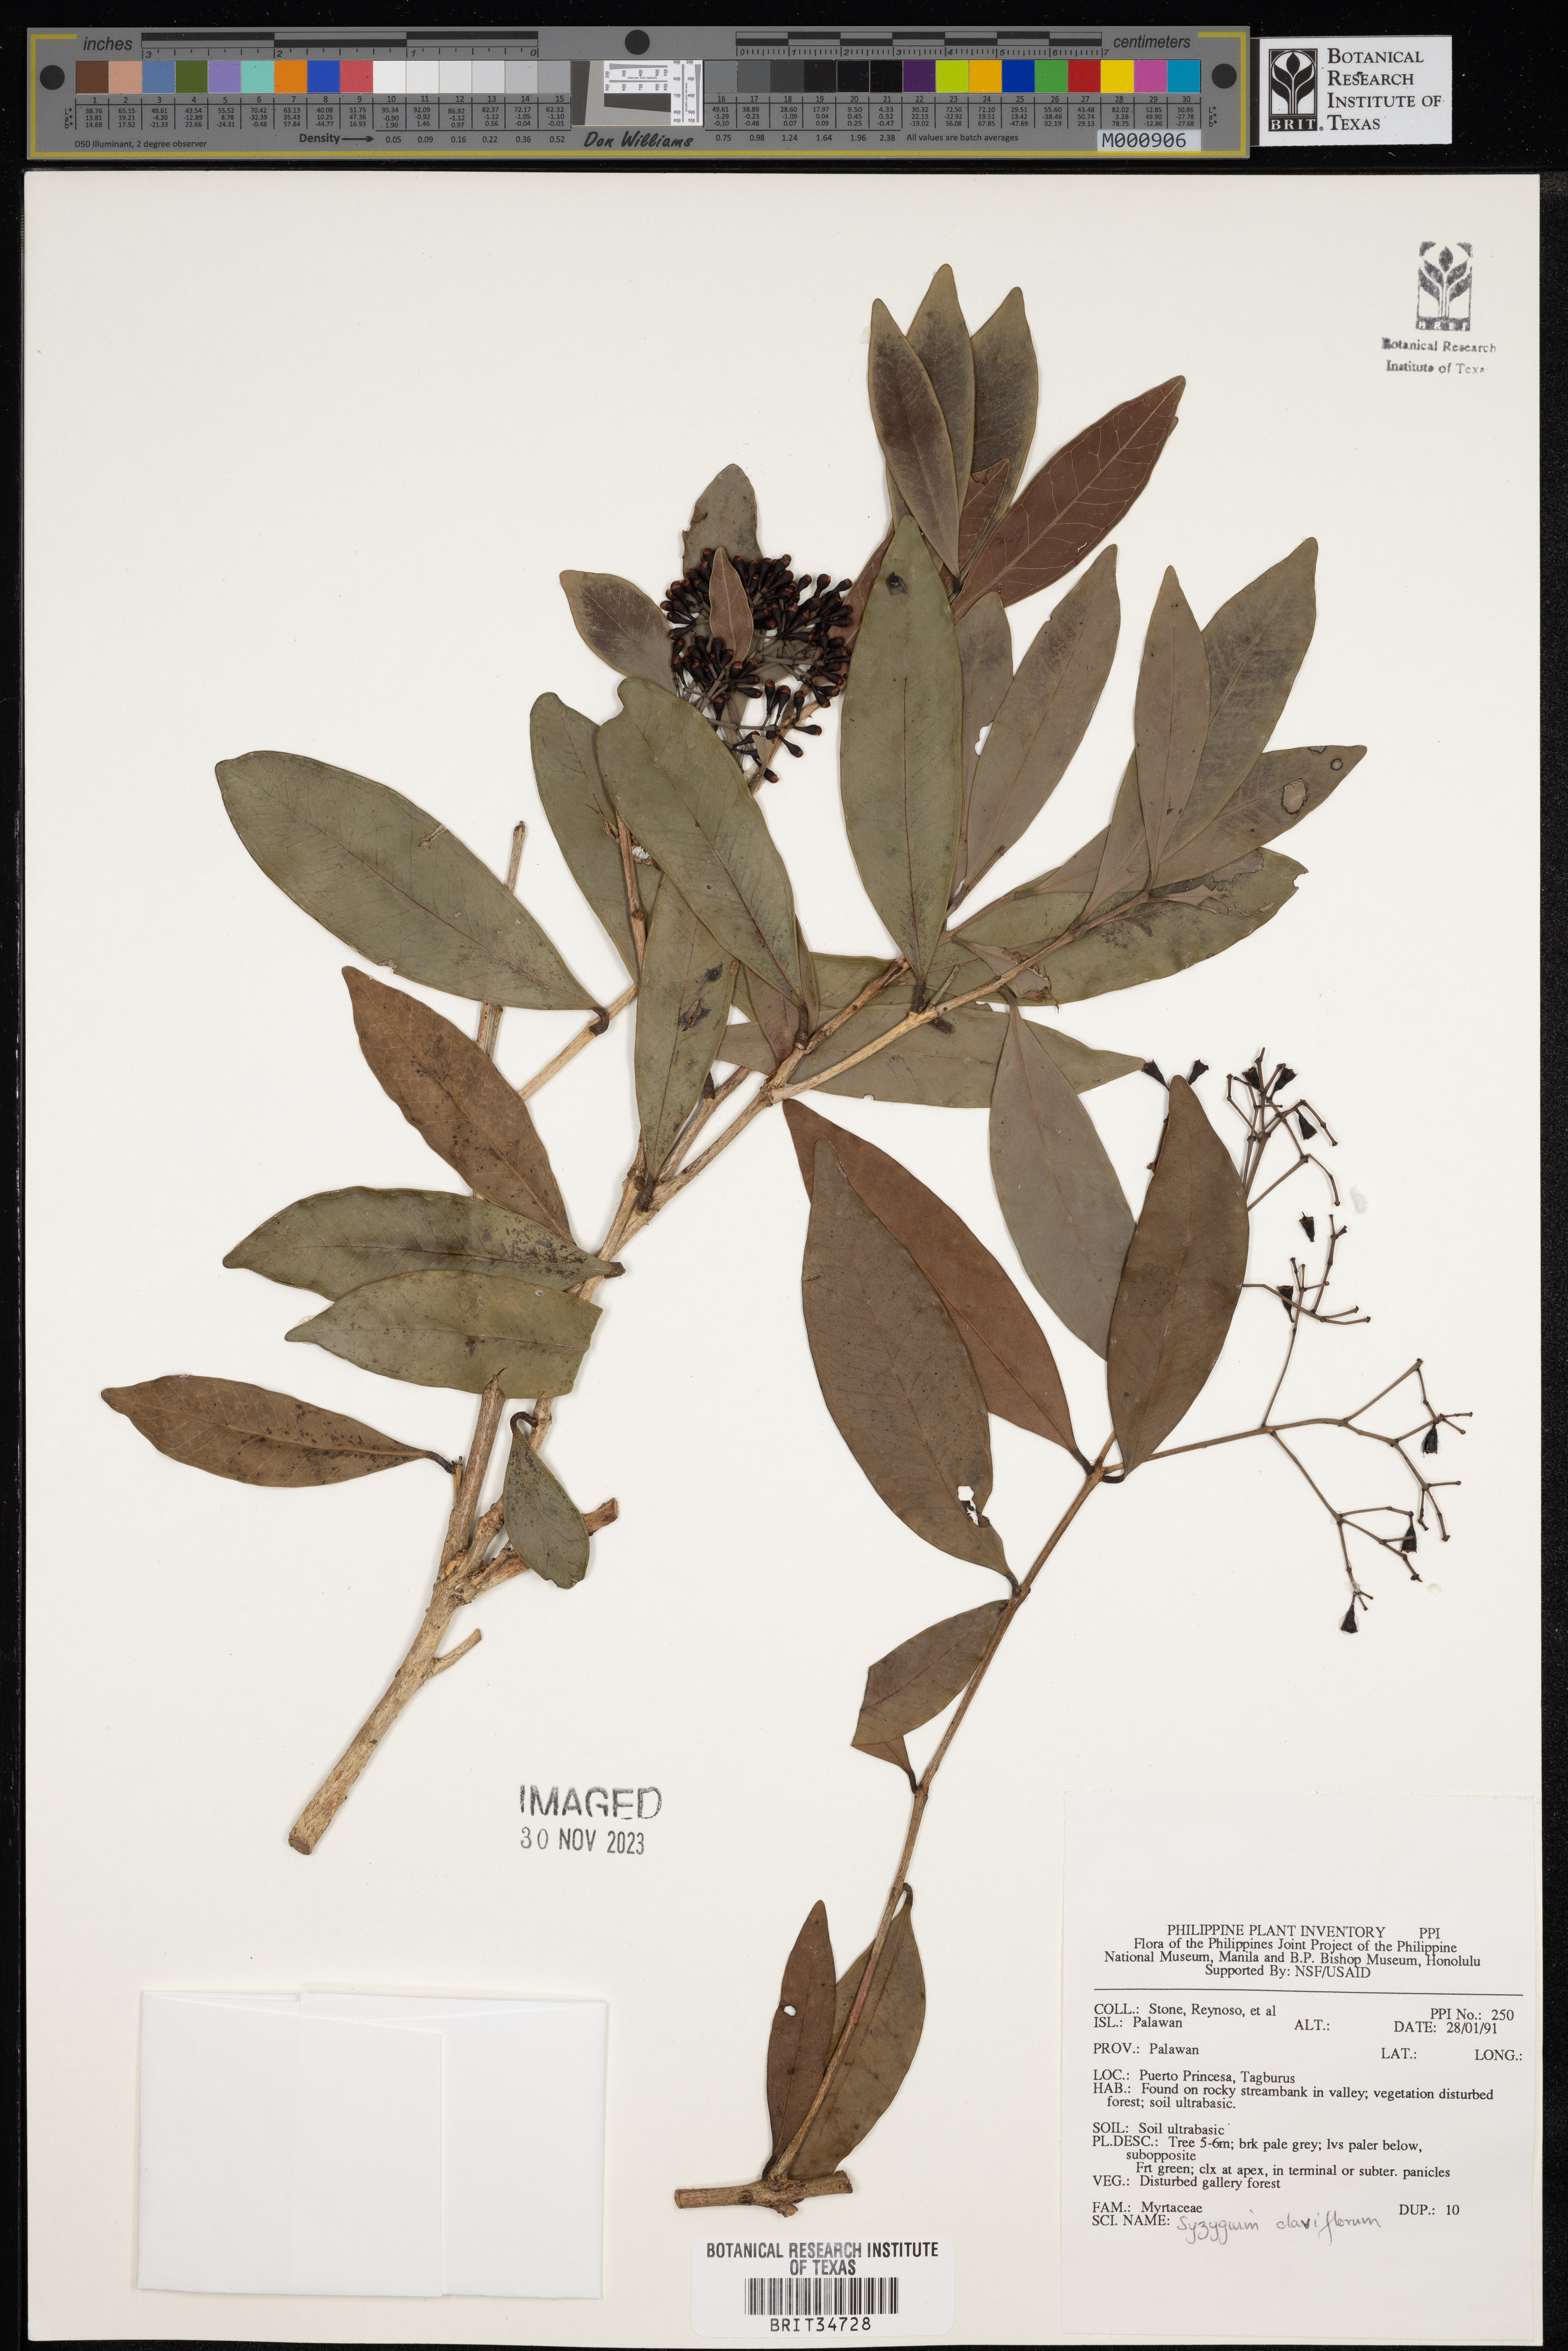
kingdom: Plantae
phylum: Tracheophyta
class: Magnoliopsida
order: Myrtales
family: Myrtaceae
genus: Syzygium
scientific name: Syzygium claviflorum
